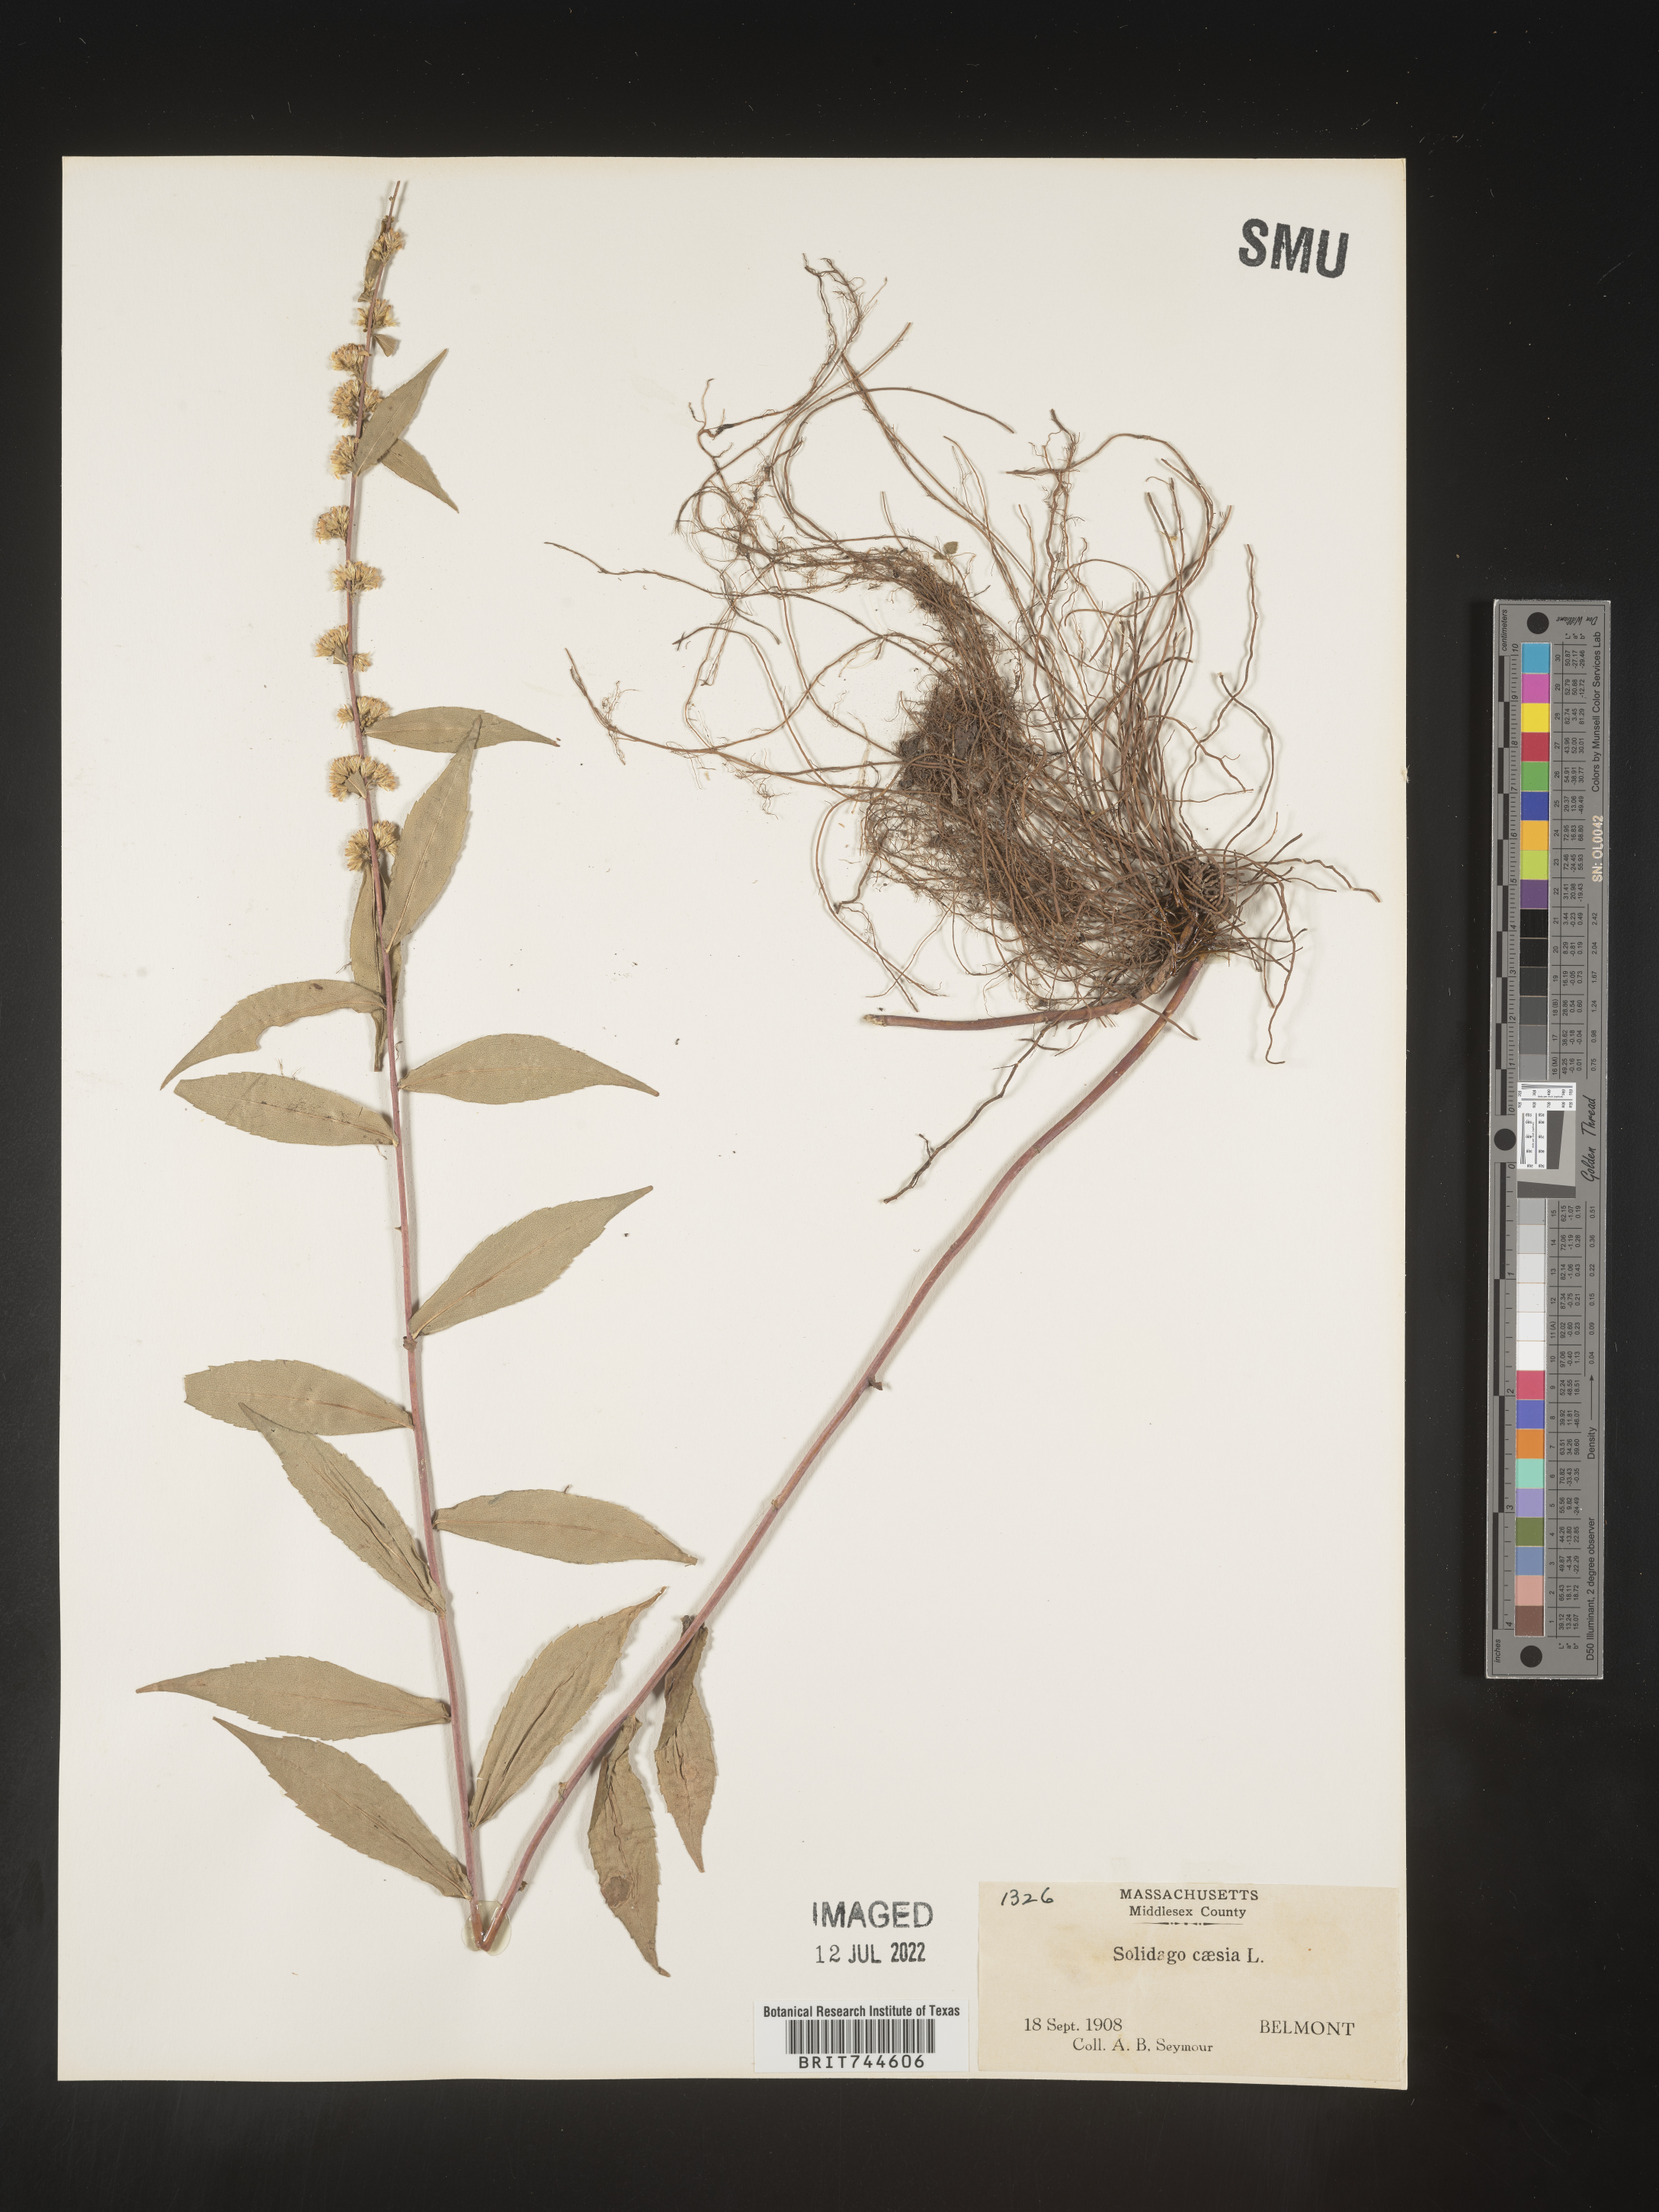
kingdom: Plantae
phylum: Tracheophyta
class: Magnoliopsida
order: Asterales
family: Asteraceae
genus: Solidago
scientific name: Solidago caesia
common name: Woodland goldenrod
